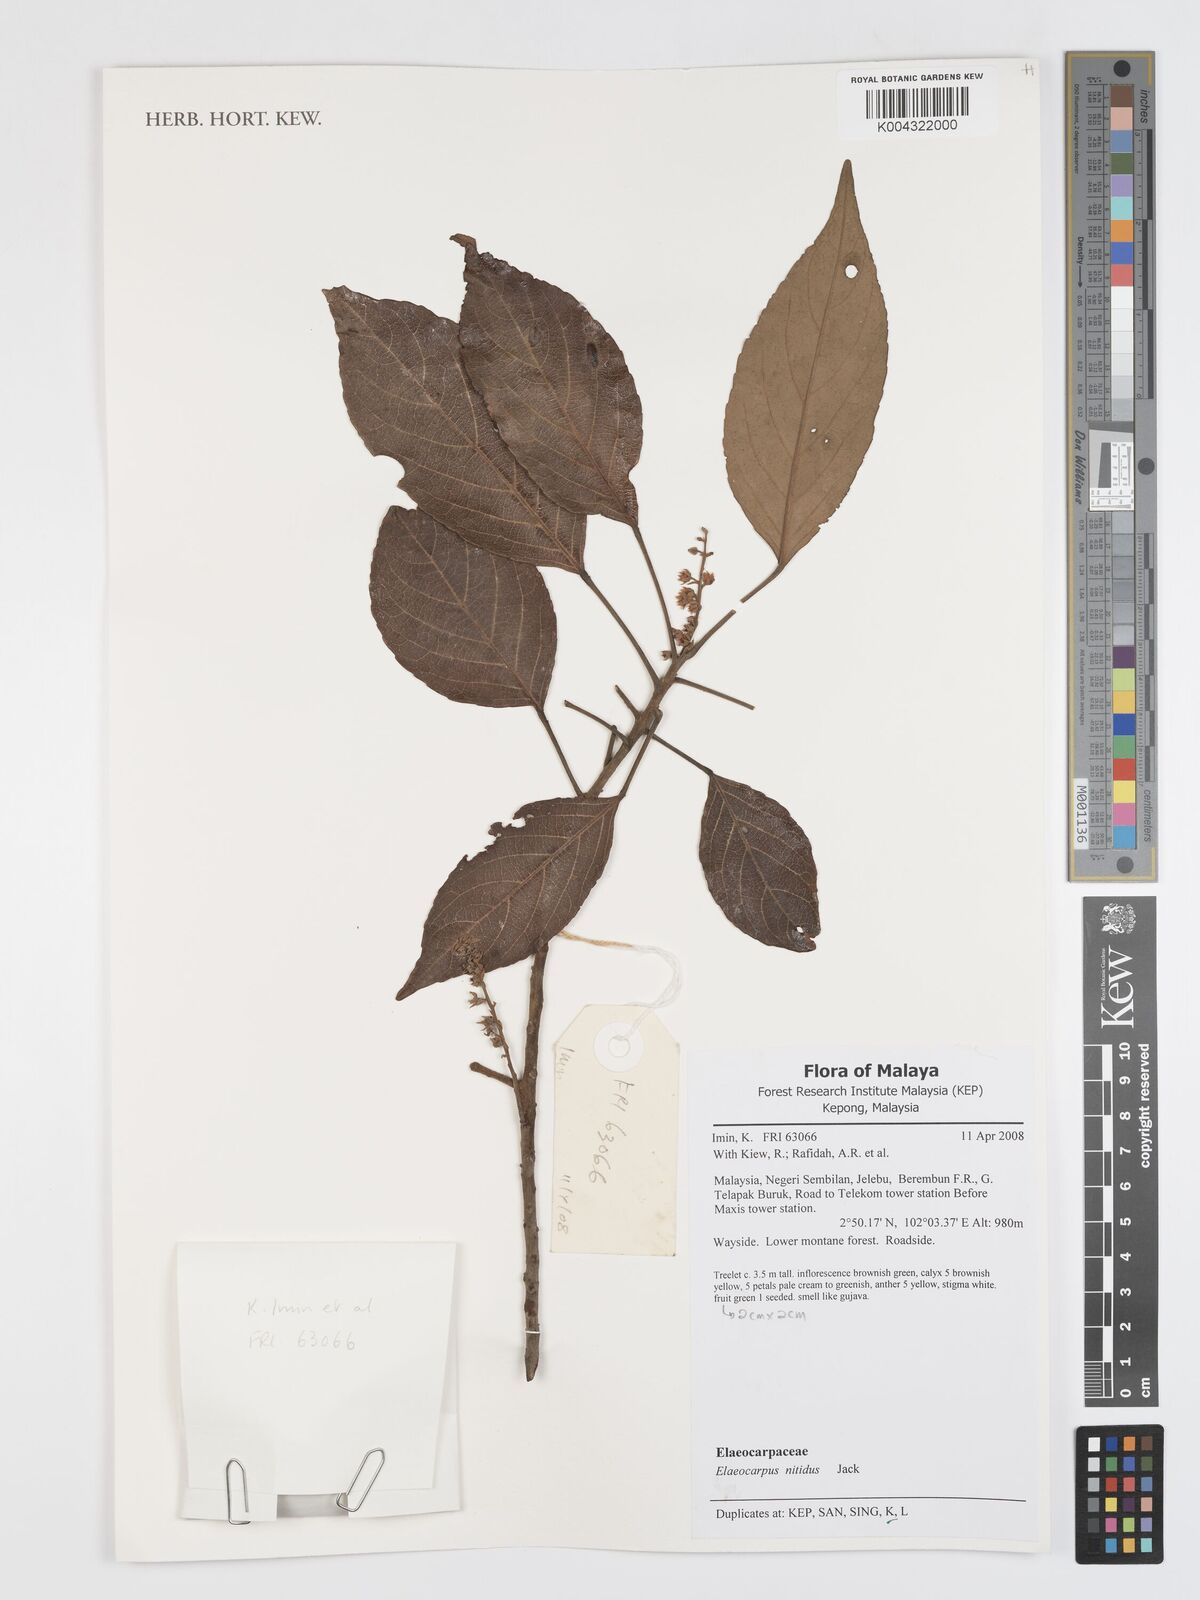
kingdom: Plantae
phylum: Tracheophyta
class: Magnoliopsida
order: Oxalidales
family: Elaeocarpaceae
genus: Elaeocarpus
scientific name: Elaeocarpus nitidus
